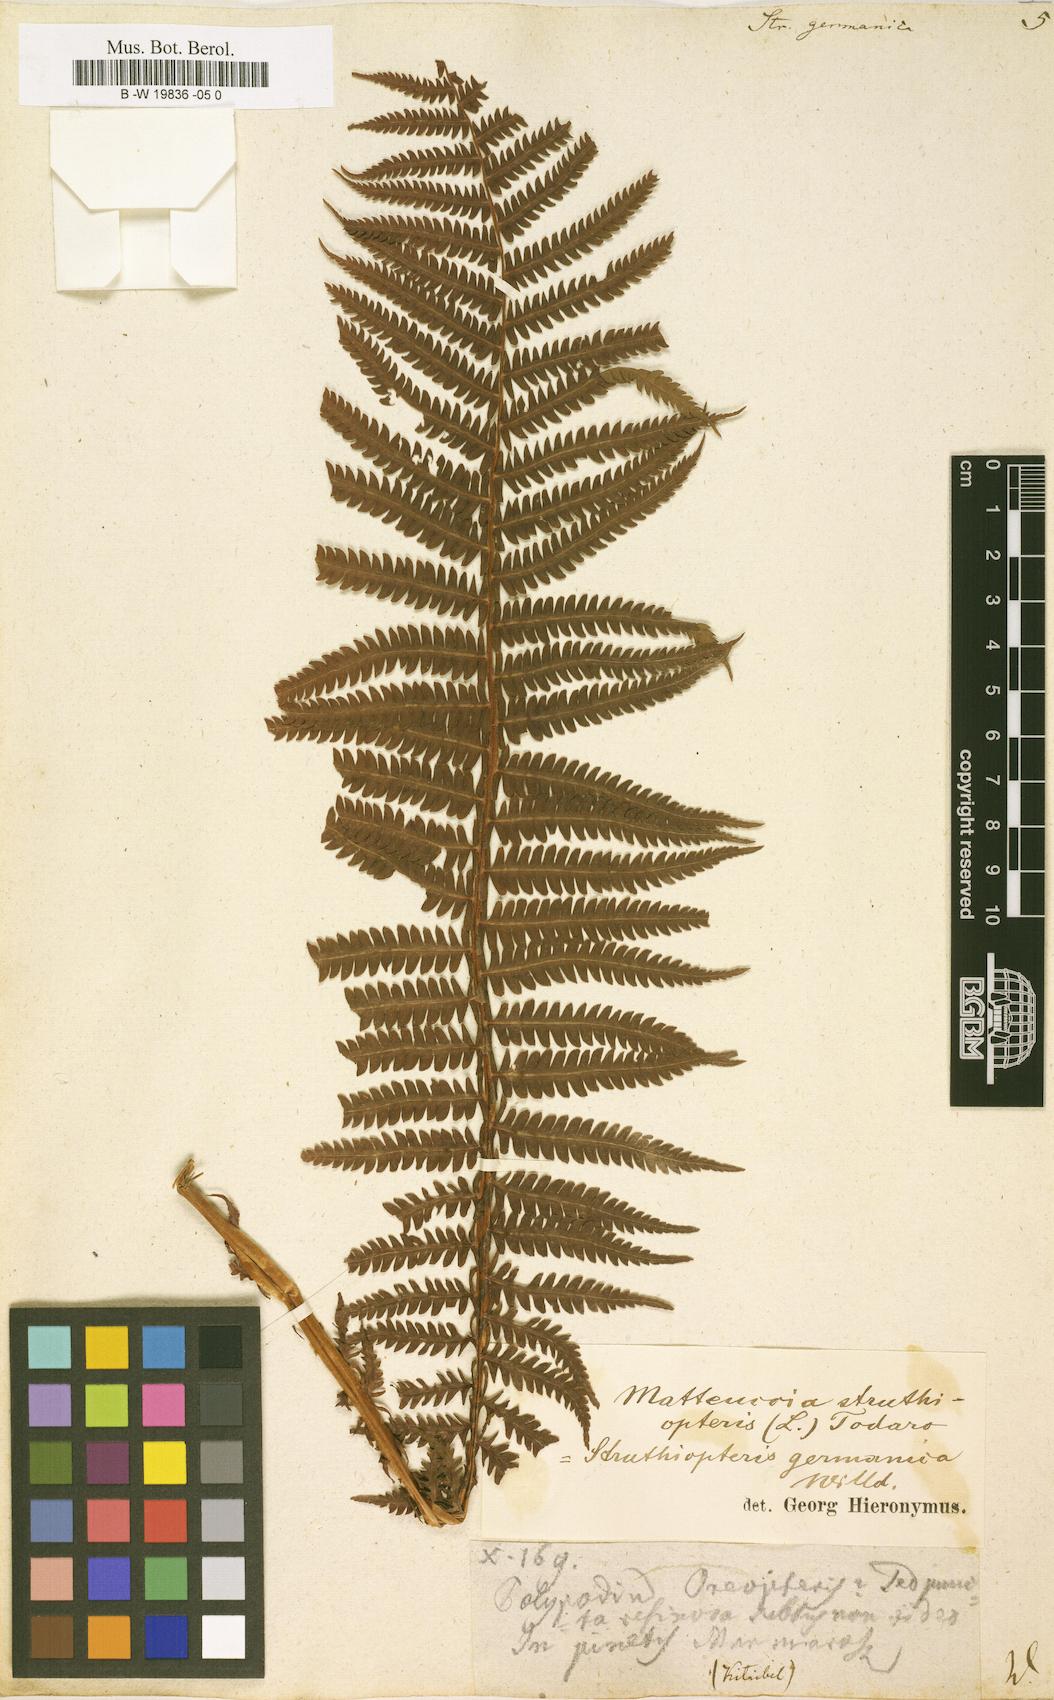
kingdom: Plantae
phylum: Tracheophyta
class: Polypodiopsida
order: Polypodiales
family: Onocleaceae
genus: Matteuccia
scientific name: Matteuccia struthiopteris
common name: Ostrich fern
